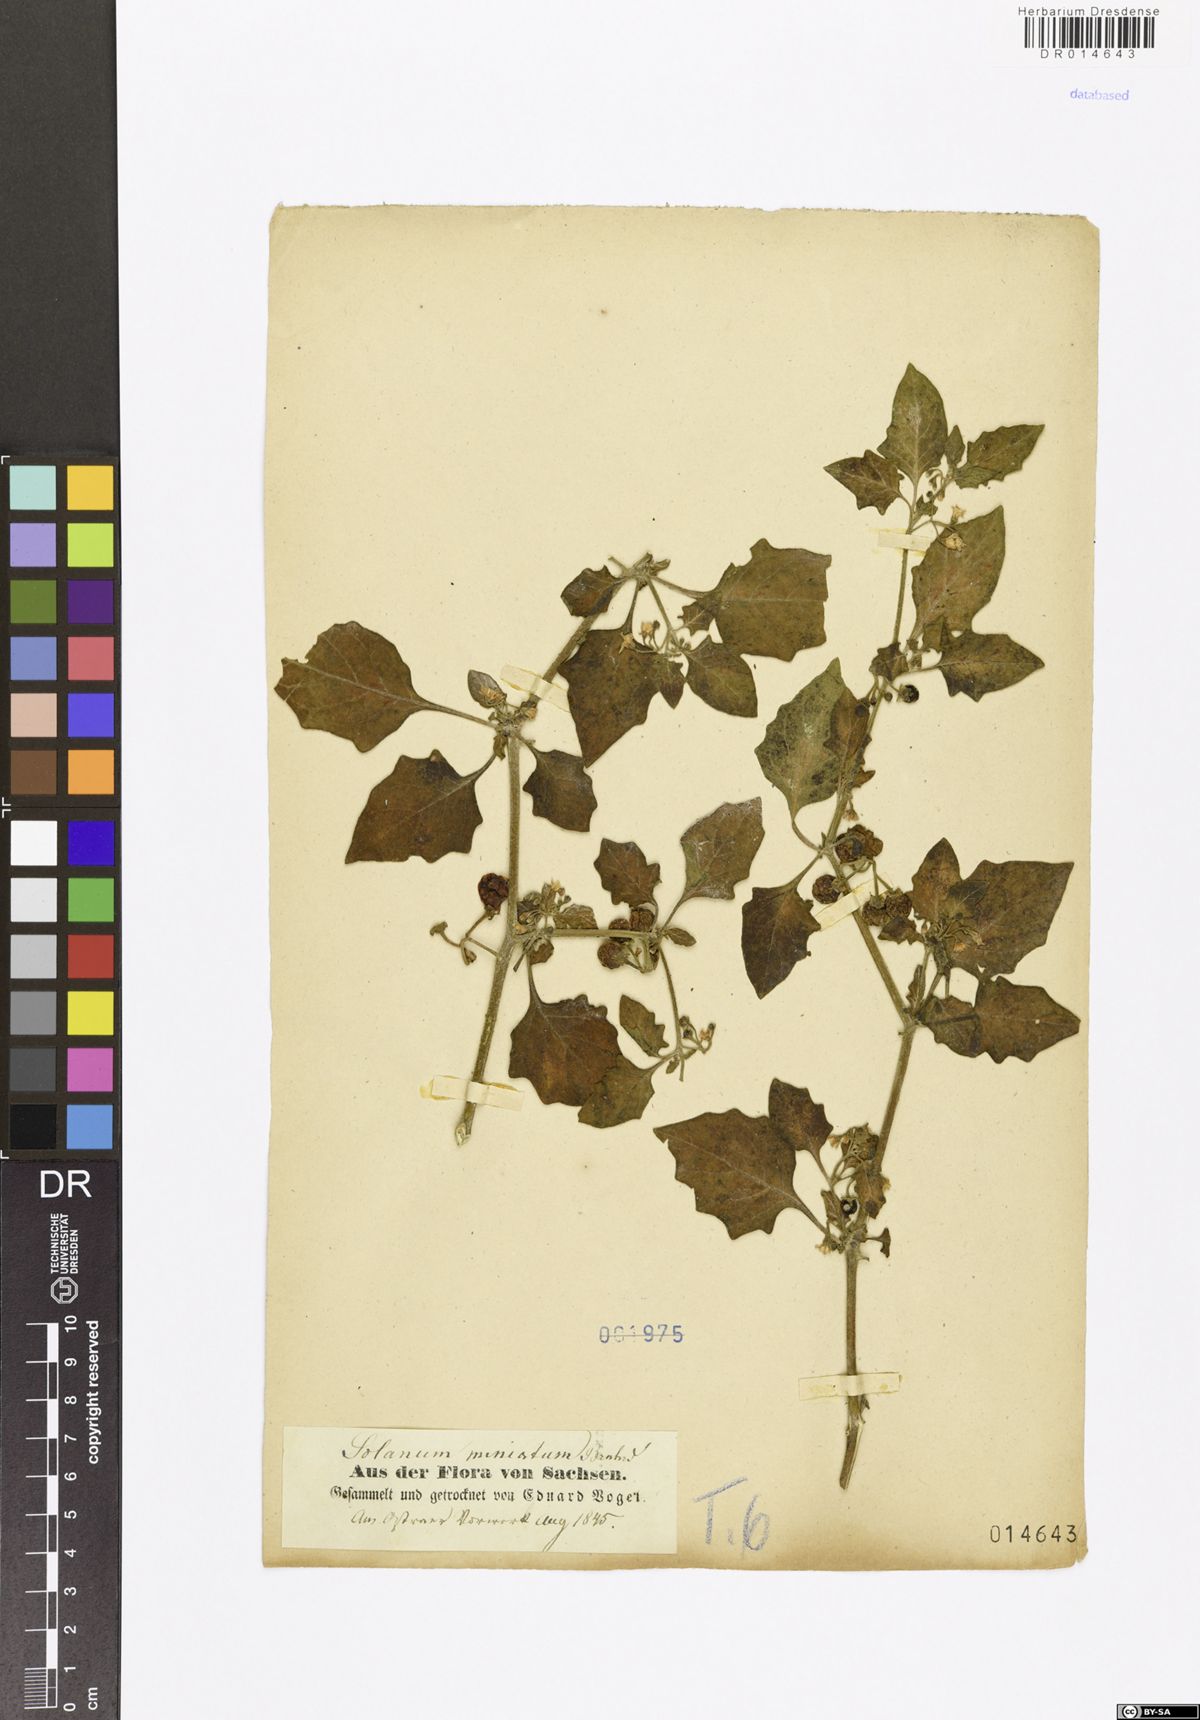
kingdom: Plantae
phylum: Tracheophyta
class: Magnoliopsida
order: Solanales
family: Solanaceae
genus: Solanum
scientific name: Solanum alatum
